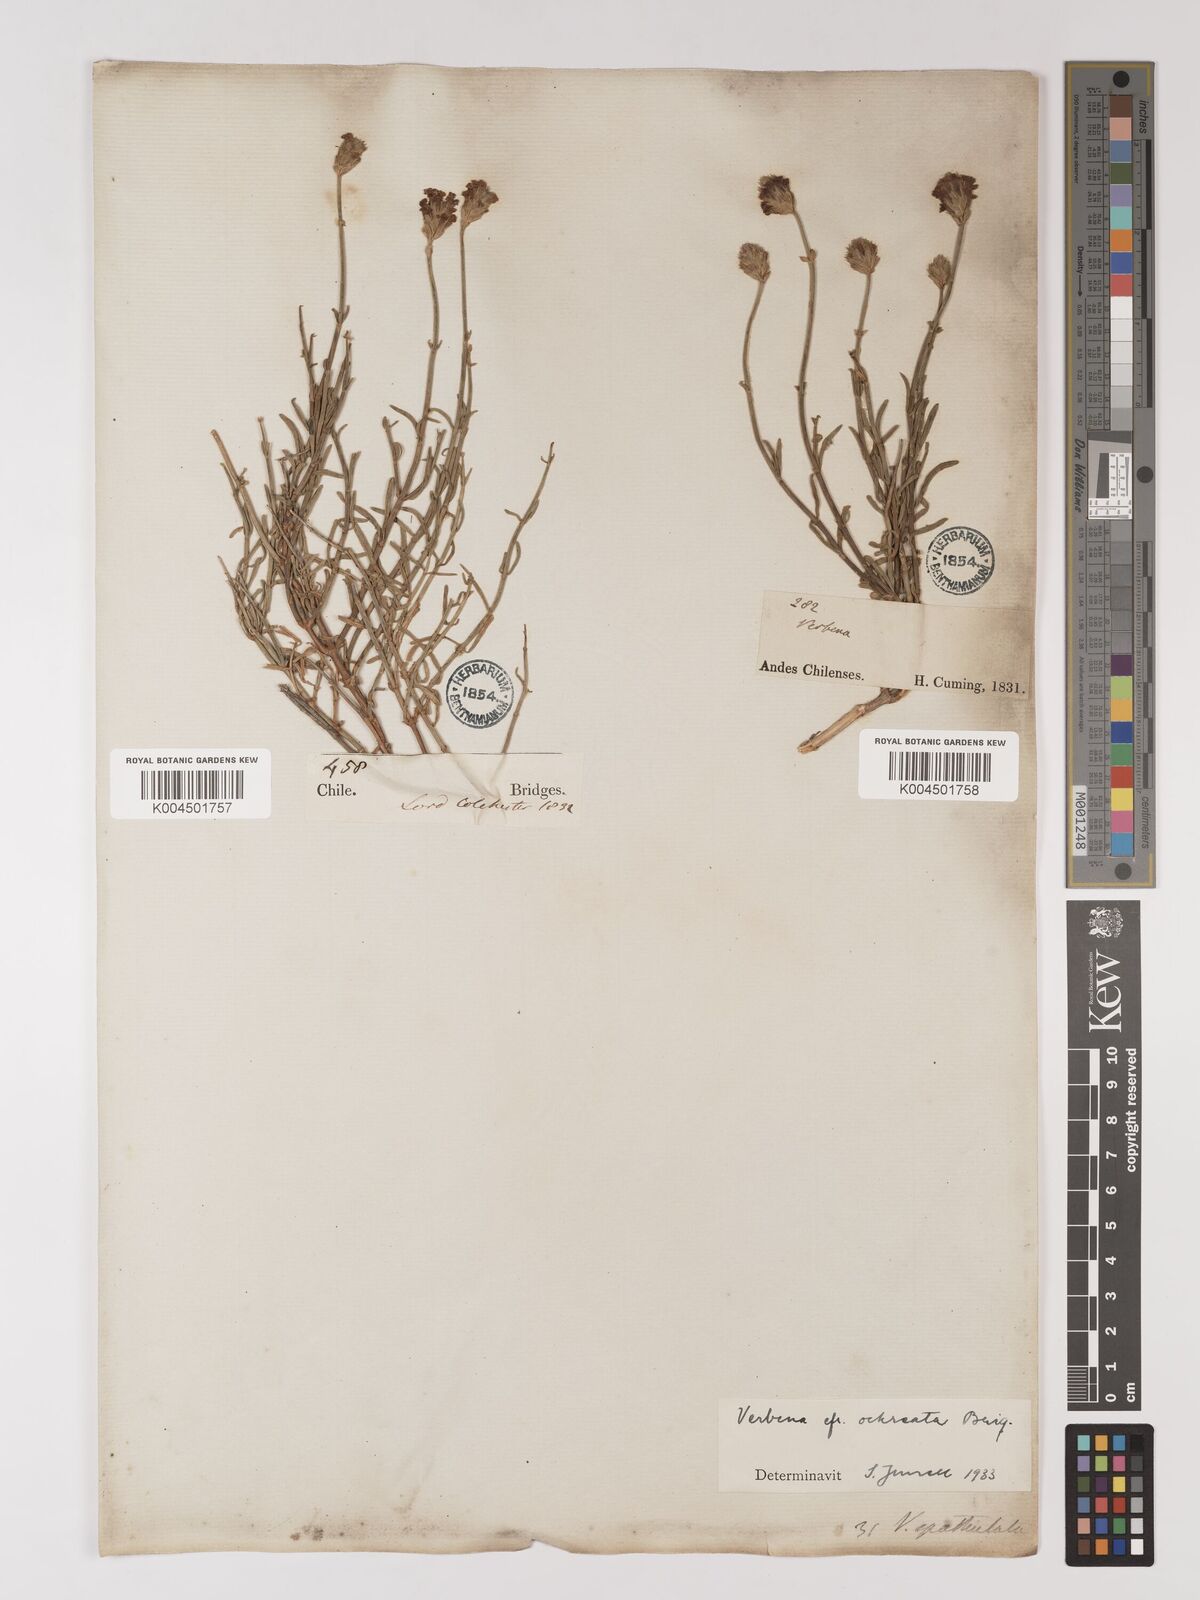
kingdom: Plantae
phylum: Tracheophyta
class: Magnoliopsida
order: Lamiales
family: Verbenaceae
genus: Junellia
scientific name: Junellia spathulata
